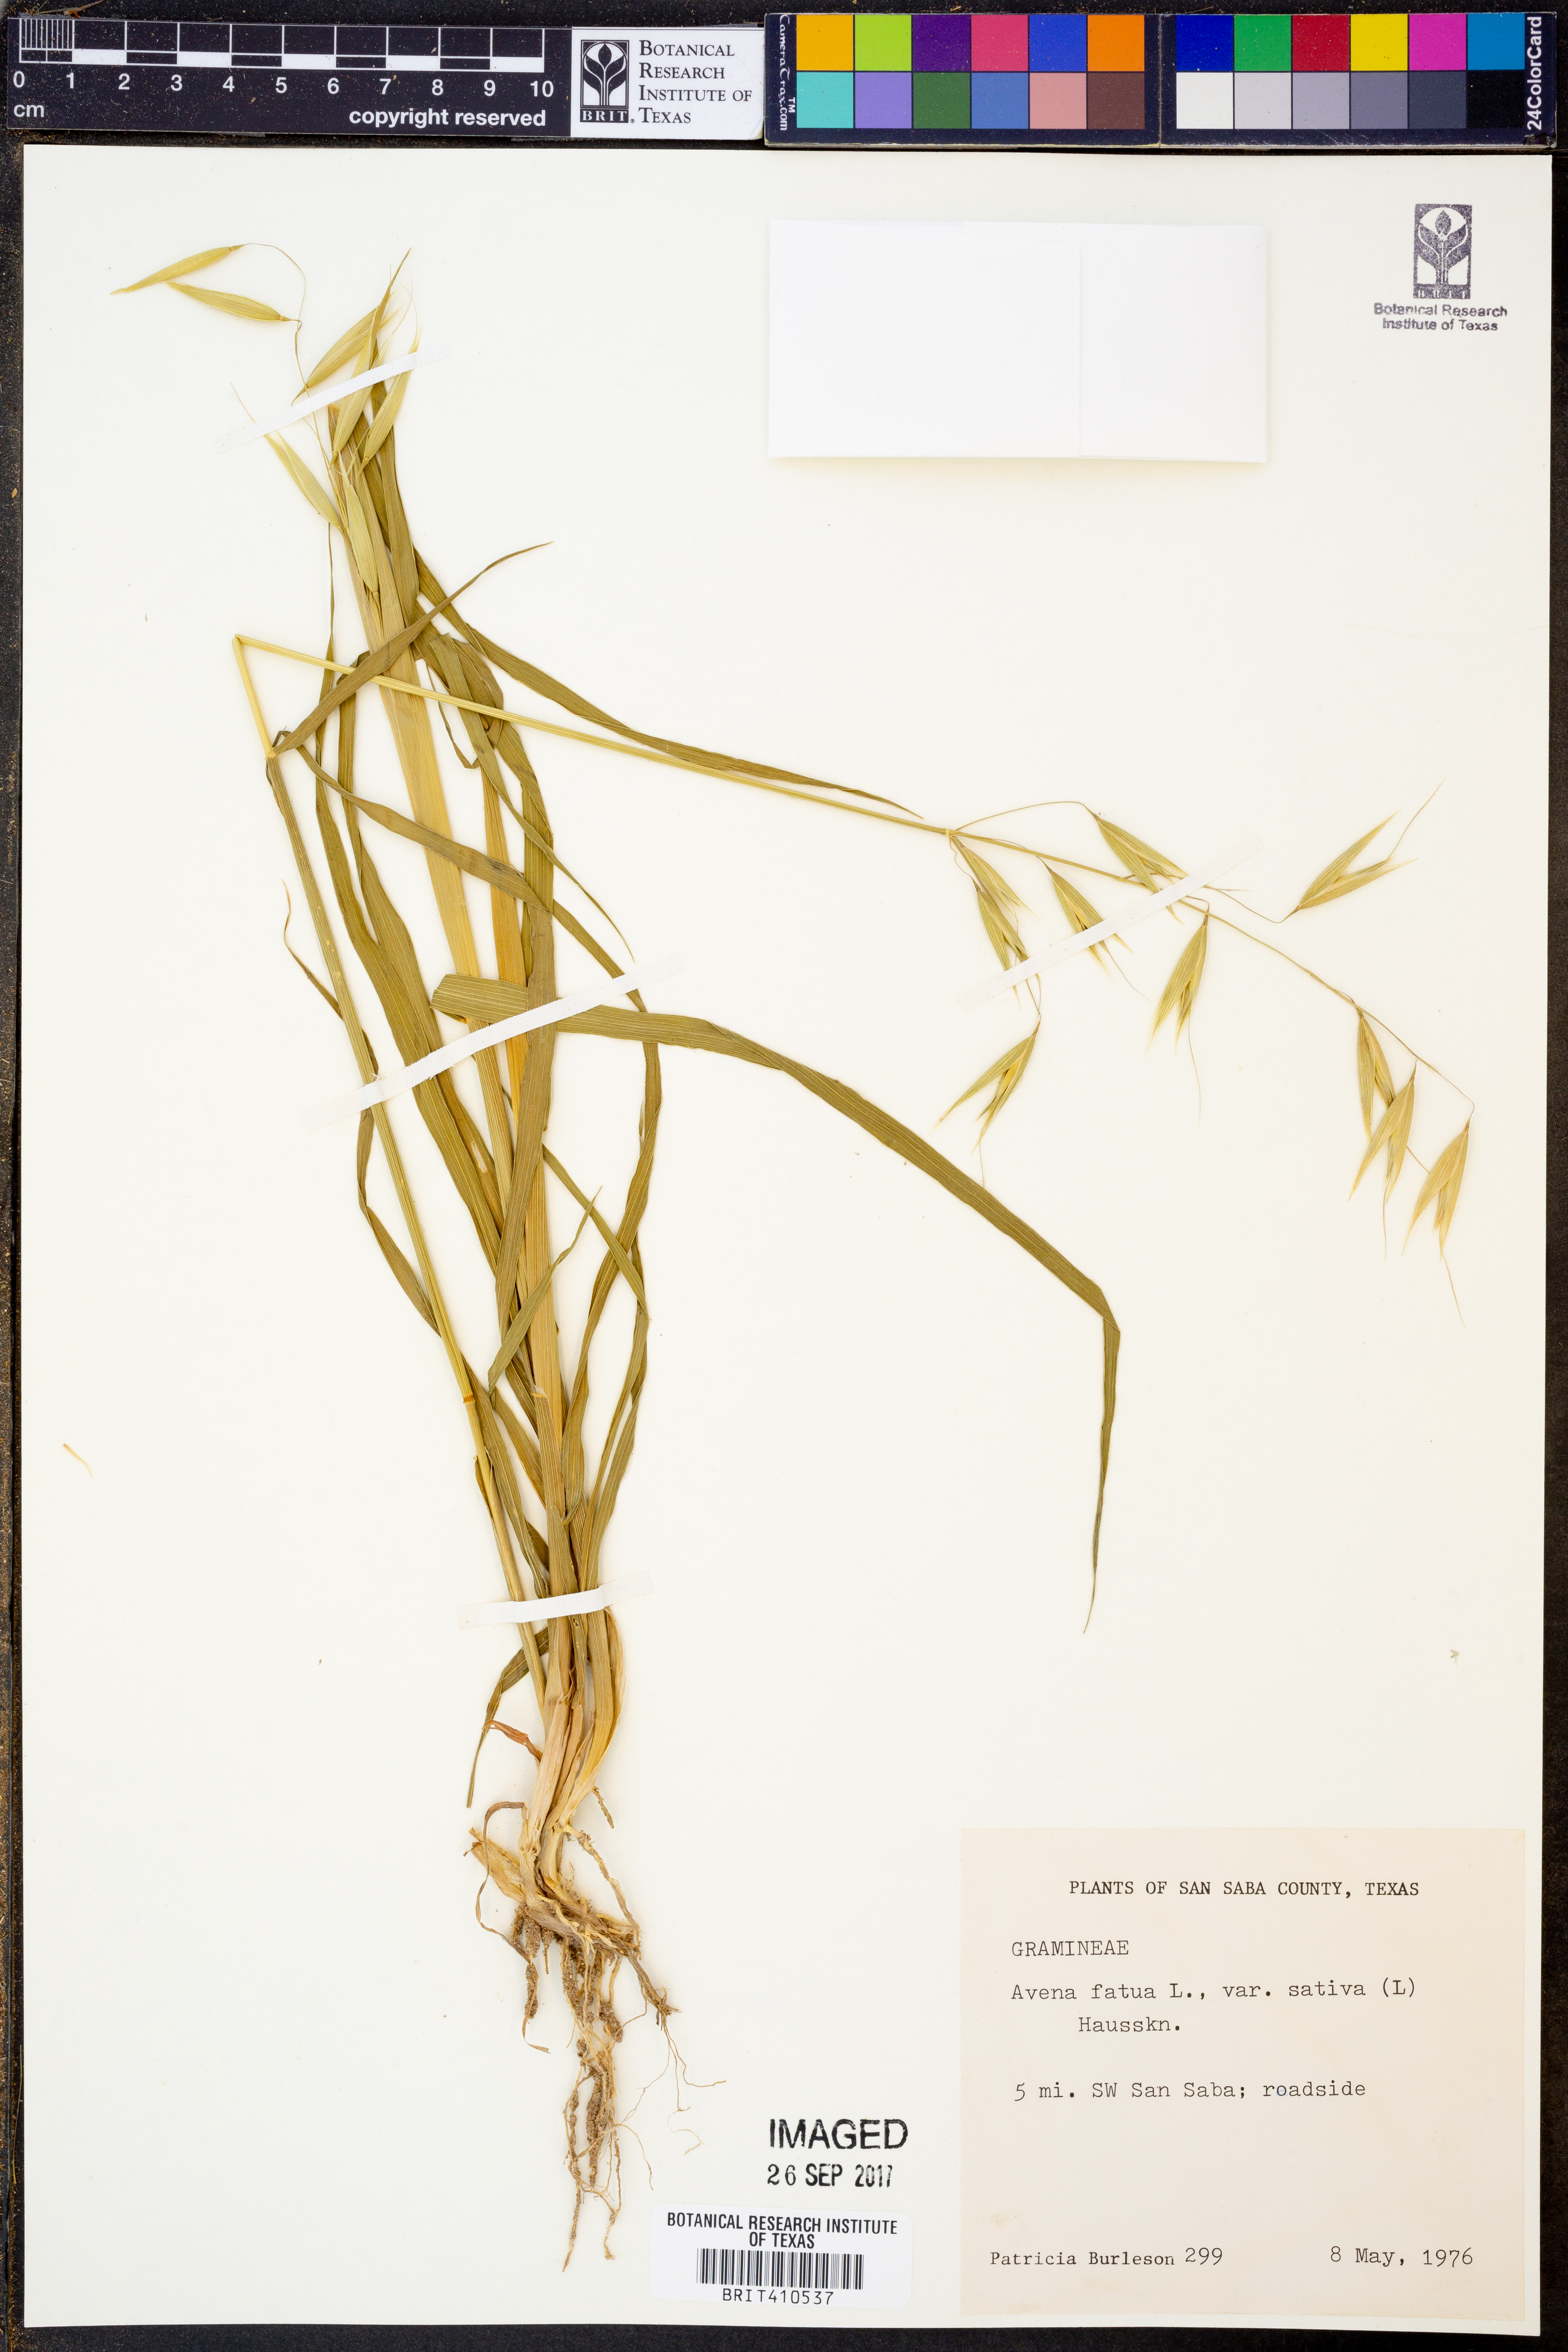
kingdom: Plantae
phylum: Tracheophyta
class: Liliopsida
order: Poales
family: Poaceae
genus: Avena
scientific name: Avena sativa
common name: Oat
